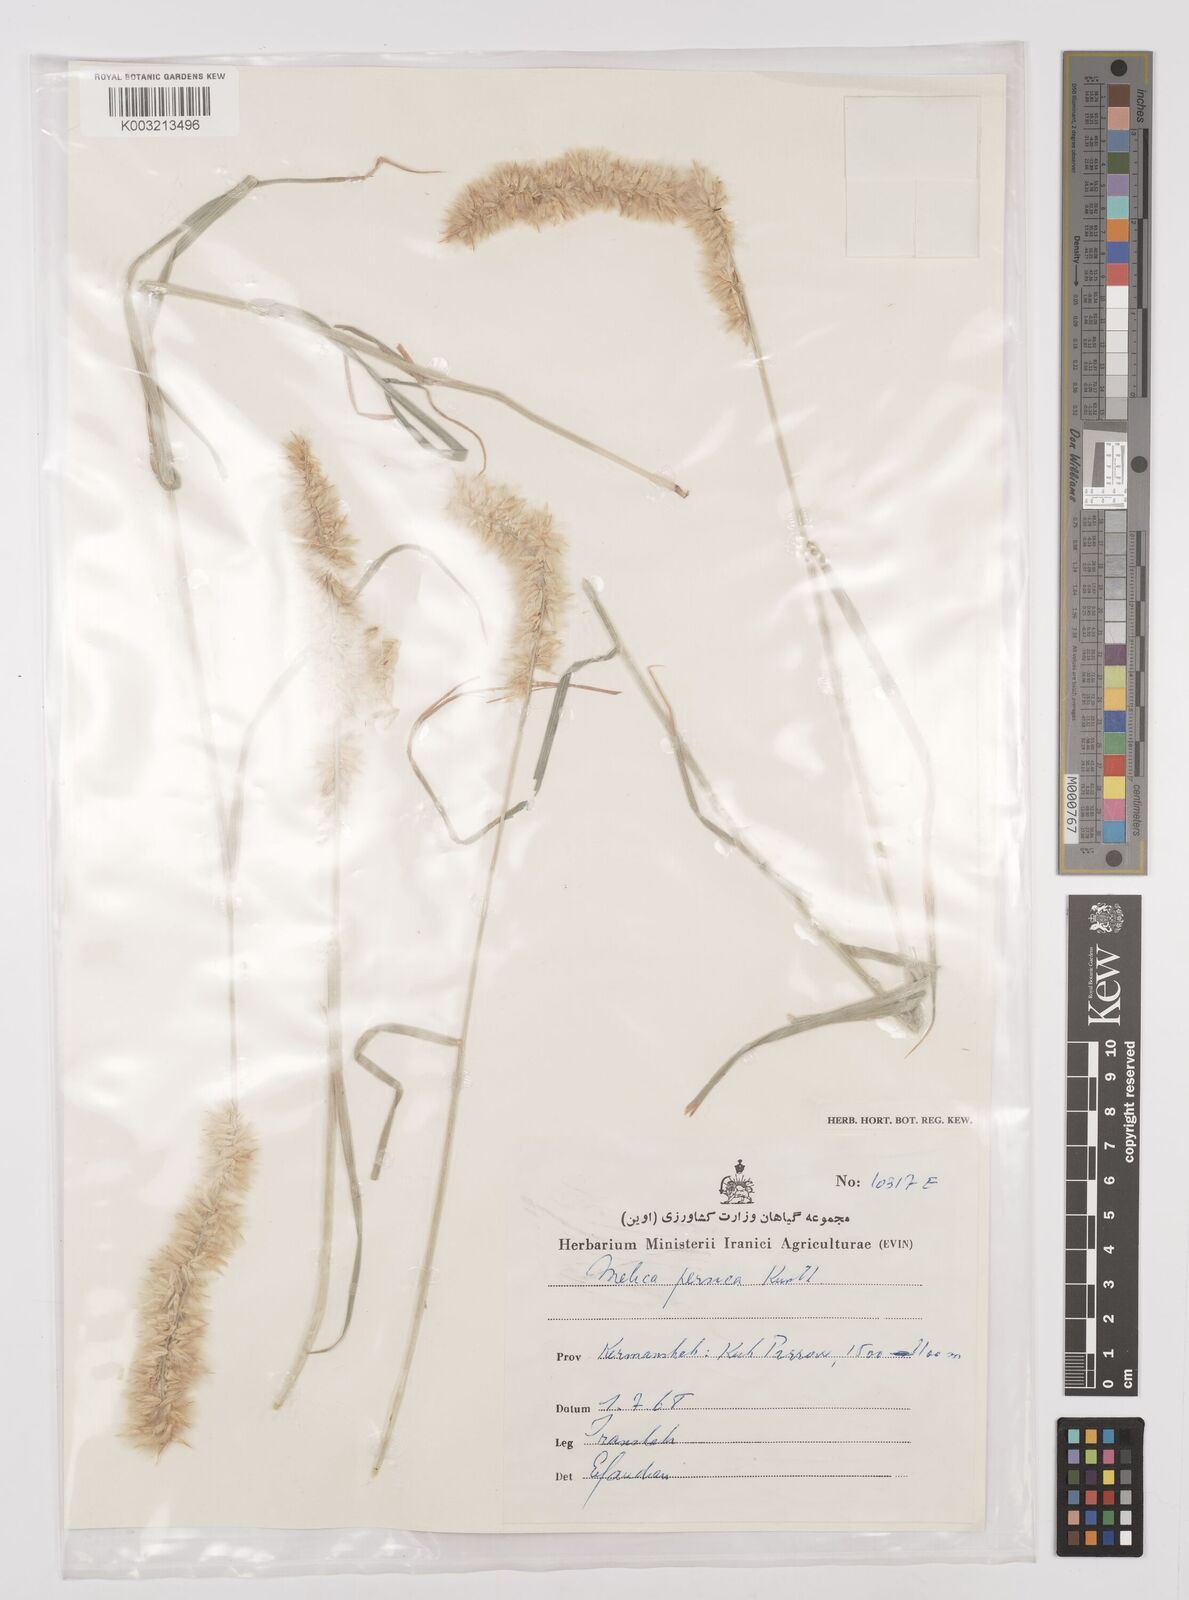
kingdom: Plantae
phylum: Tracheophyta
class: Liliopsida
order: Poales
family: Poaceae
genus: Melica
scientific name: Melica persica
